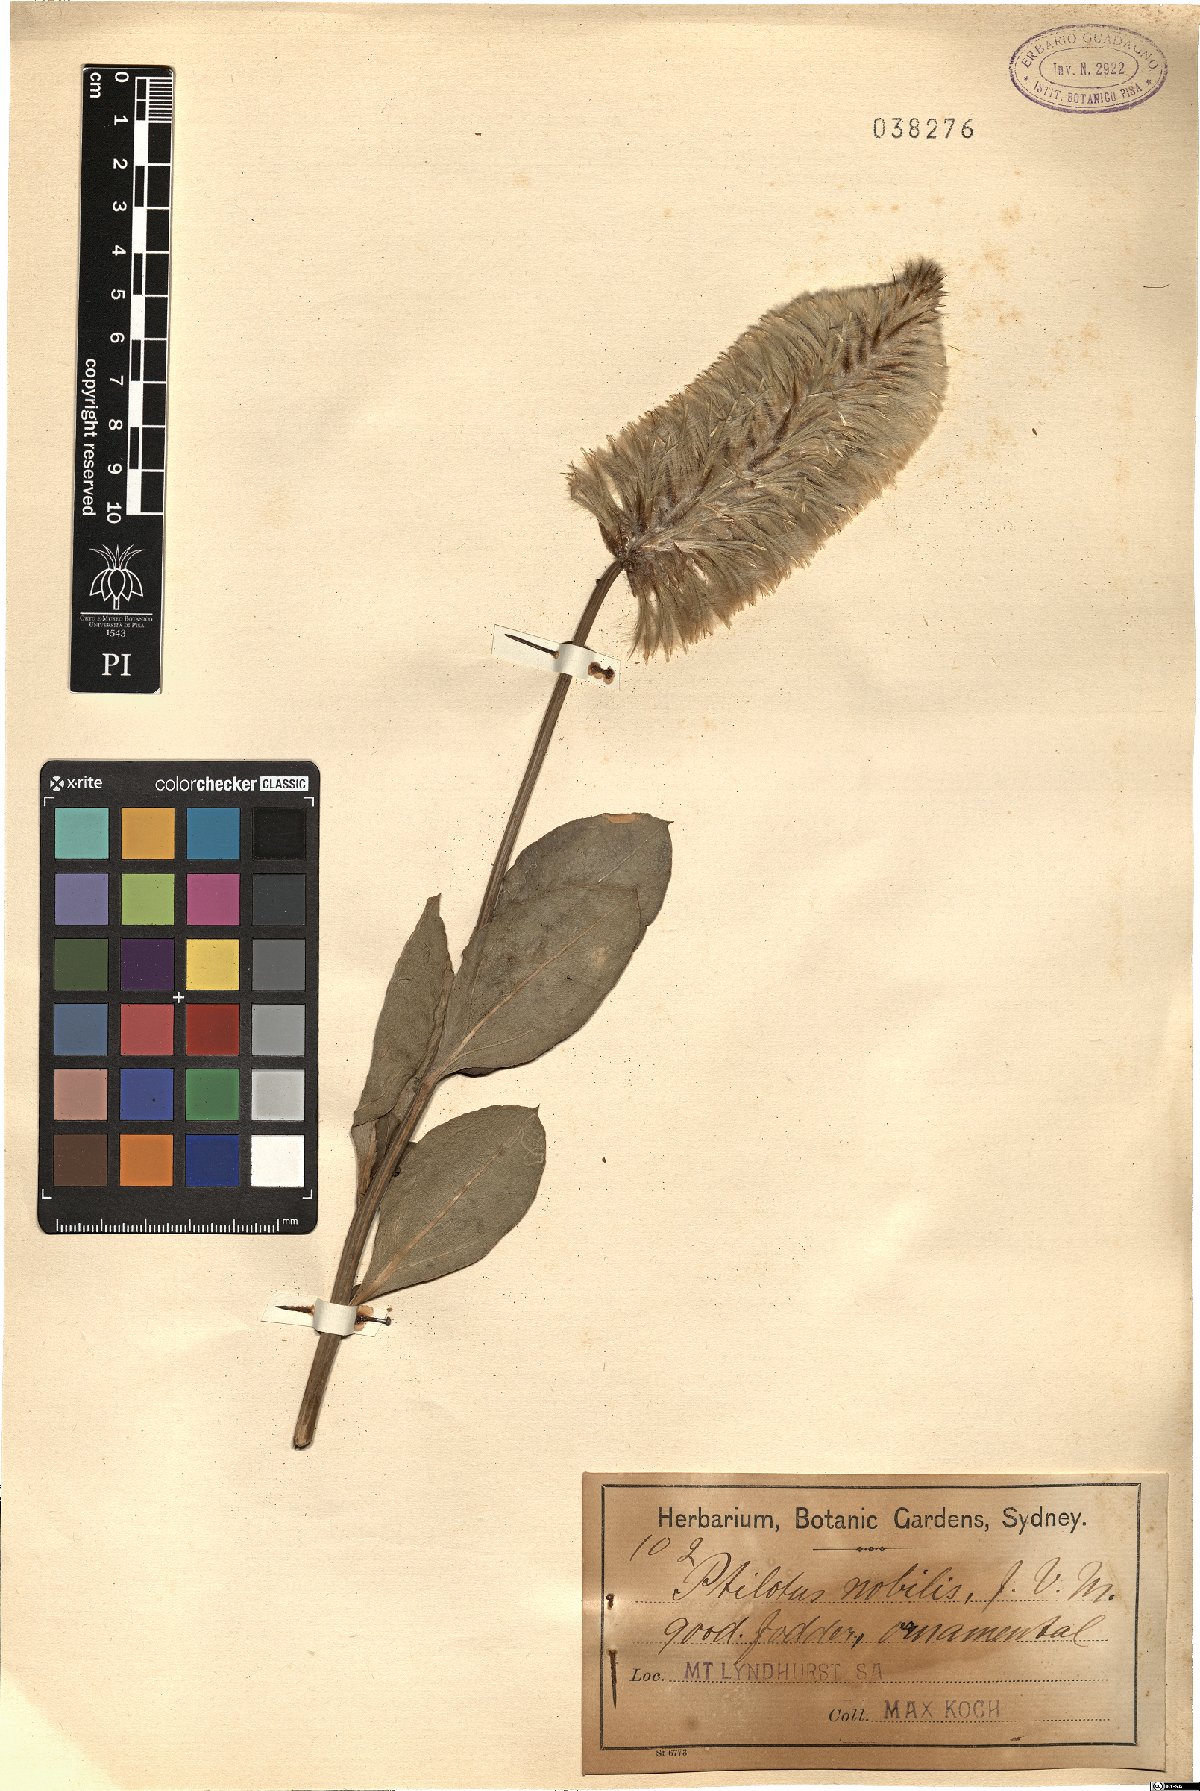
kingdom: Plantae
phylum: Tracheophyta
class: Magnoliopsida
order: Caryophyllales
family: Amaranthaceae
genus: Ptilotus
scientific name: Ptilotus nobilis
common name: Regal-foxtail
